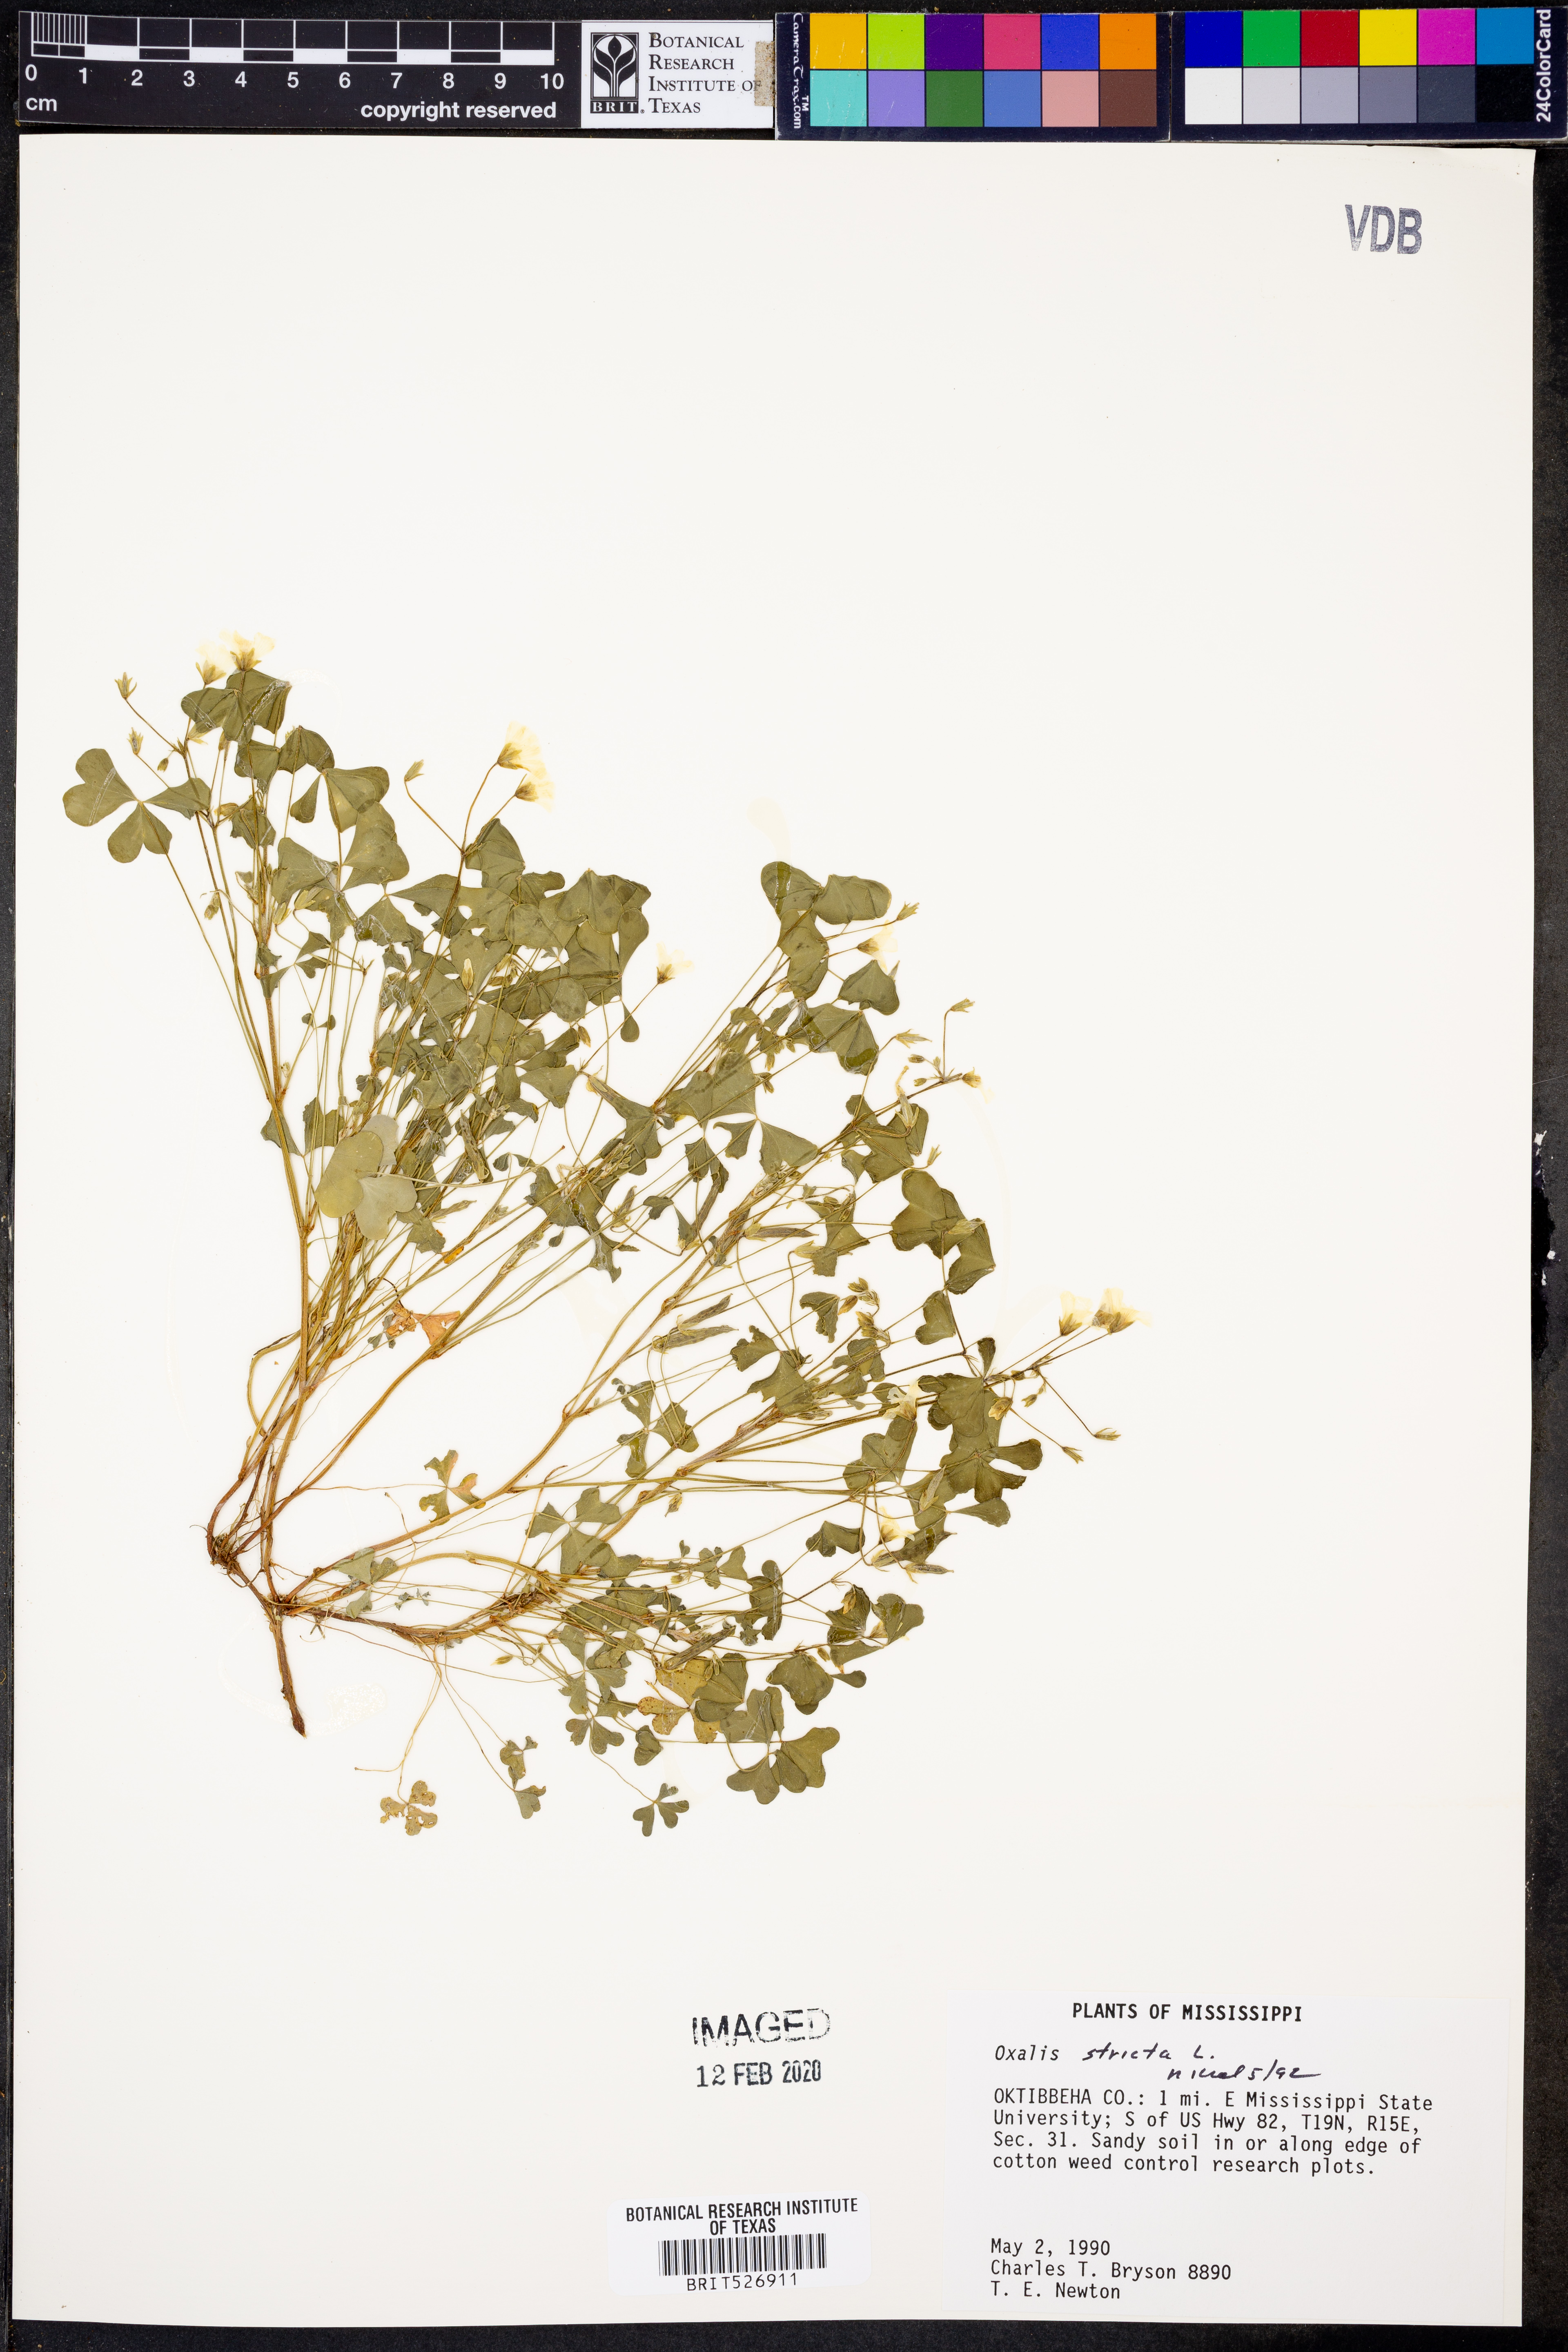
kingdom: Plantae
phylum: Tracheophyta
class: Magnoliopsida
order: Oxalidales
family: Oxalidaceae
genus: Oxalis
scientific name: Oxalis stricta
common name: Upright yellow-sorrel
